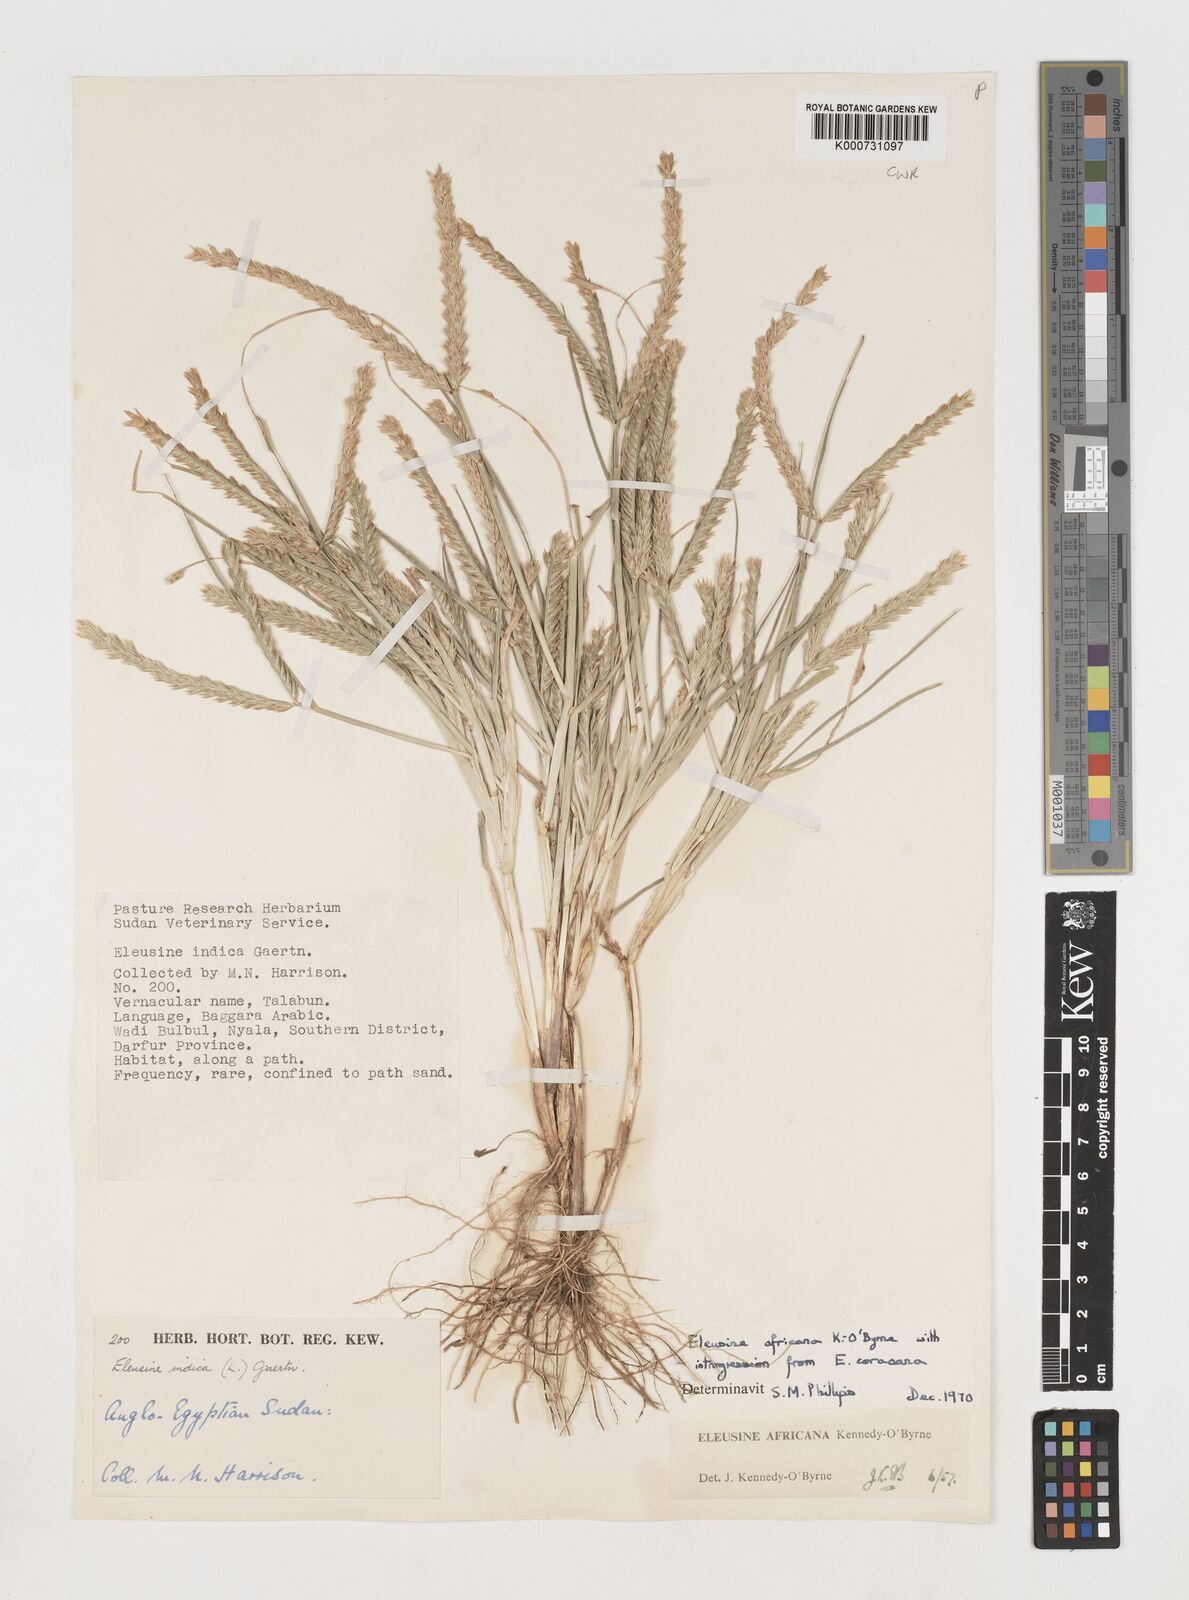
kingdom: Plantae
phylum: Tracheophyta
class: Liliopsida
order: Poales
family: Poaceae
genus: Eleusine
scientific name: Eleusine africana
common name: Wild african finger millet
